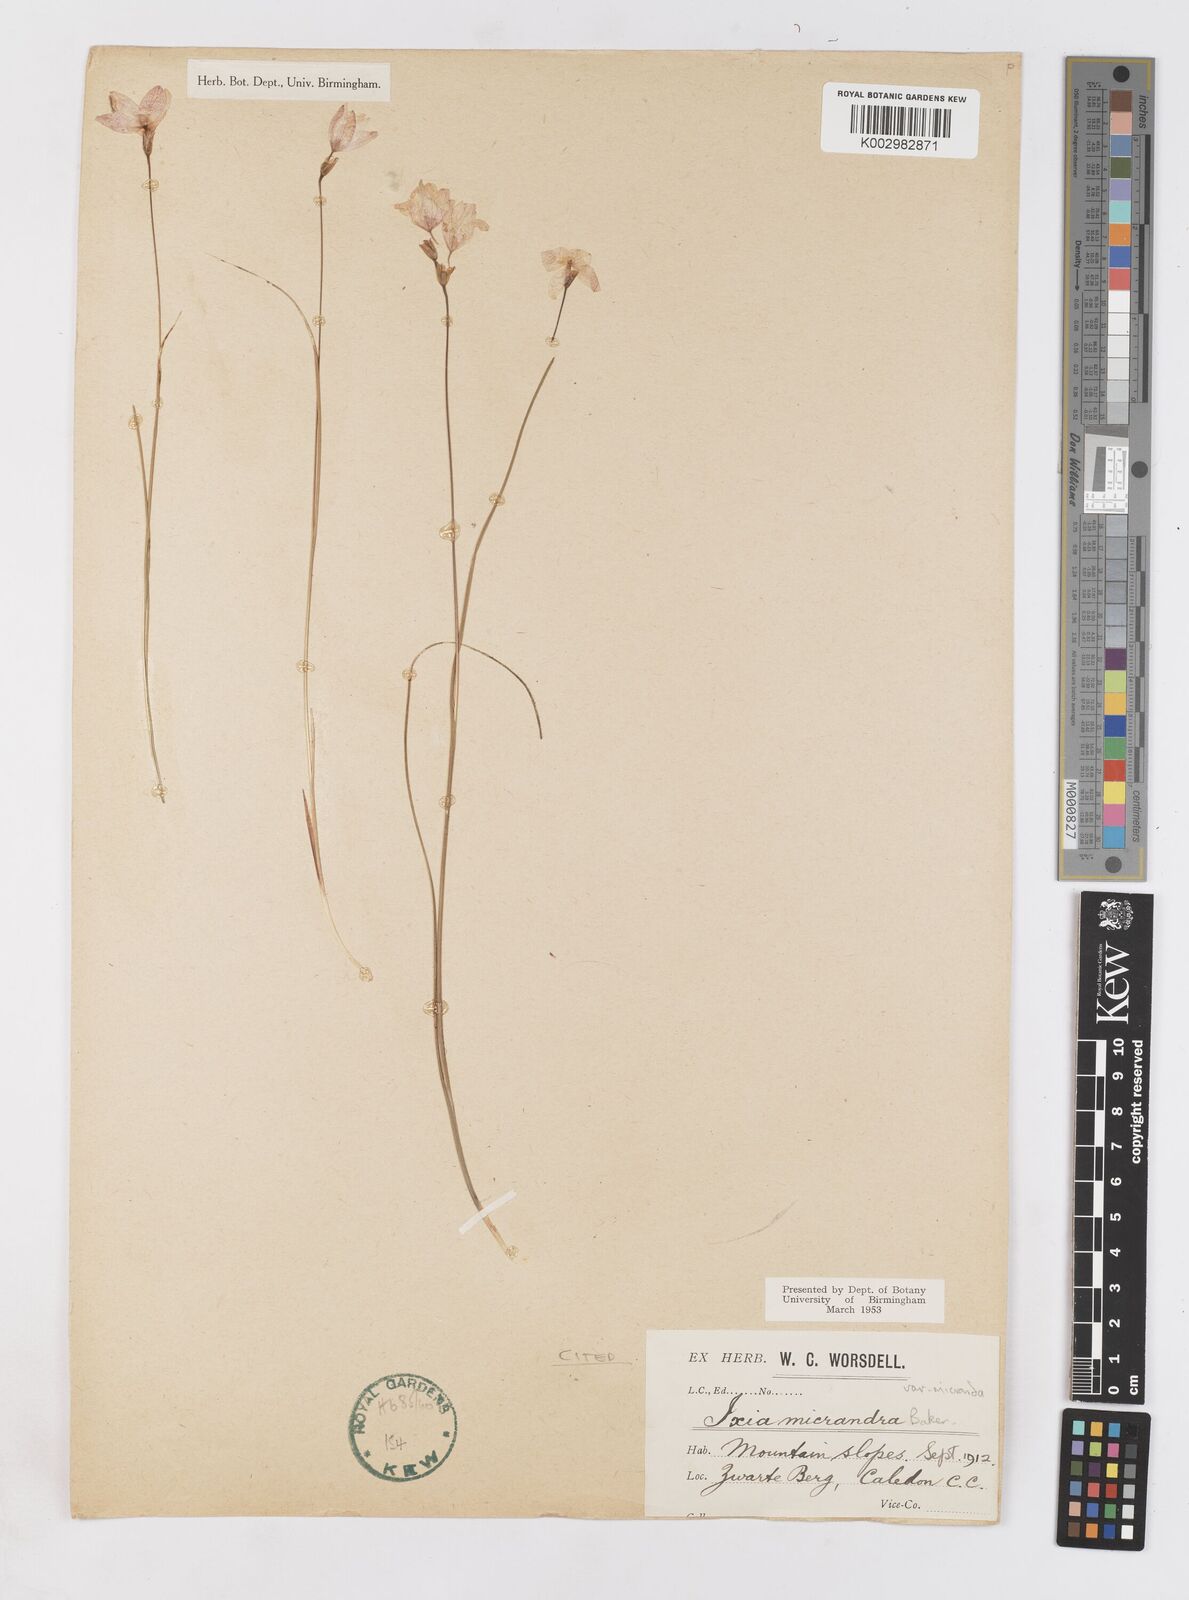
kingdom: Plantae
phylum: Tracheophyta
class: Liliopsida
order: Asparagales
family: Iridaceae
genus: Ixia
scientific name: Ixia micrandra
